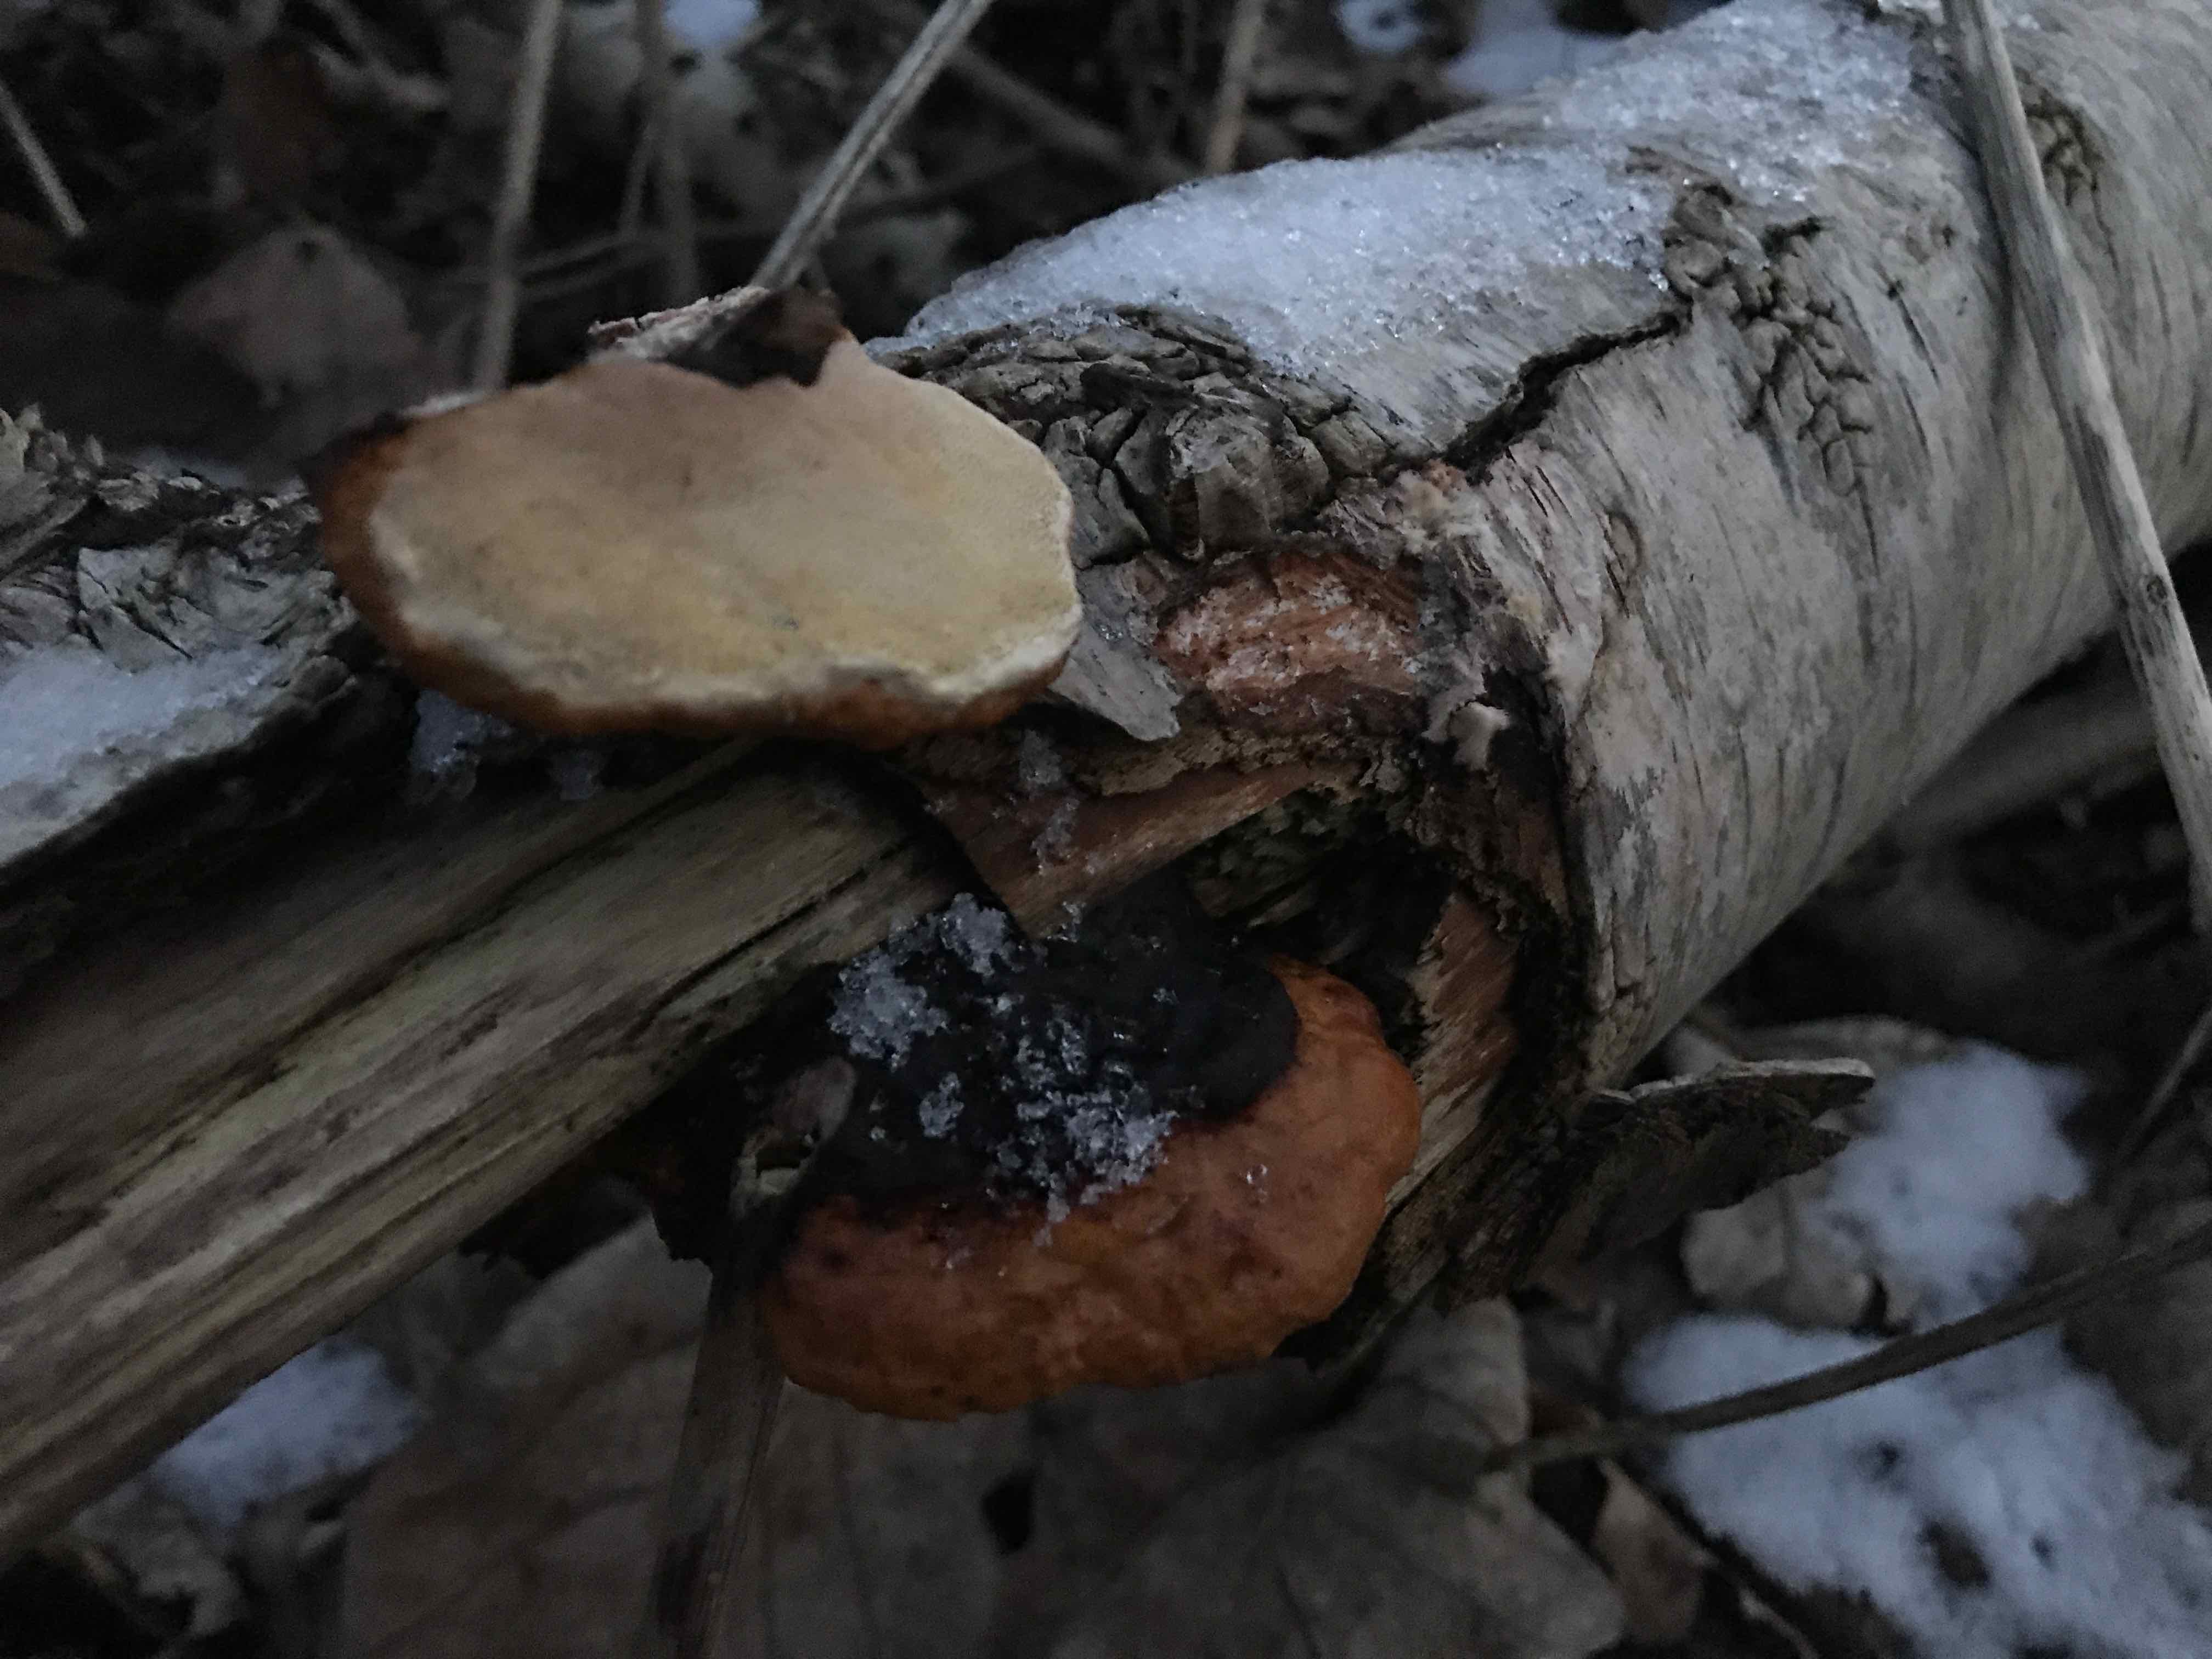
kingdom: Fungi
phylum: Basidiomycota
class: Agaricomycetes
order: Polyporales
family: Fomitopsidaceae
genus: Fomitopsis
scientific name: Fomitopsis pinicola
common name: randbæltet hovporesvamp
